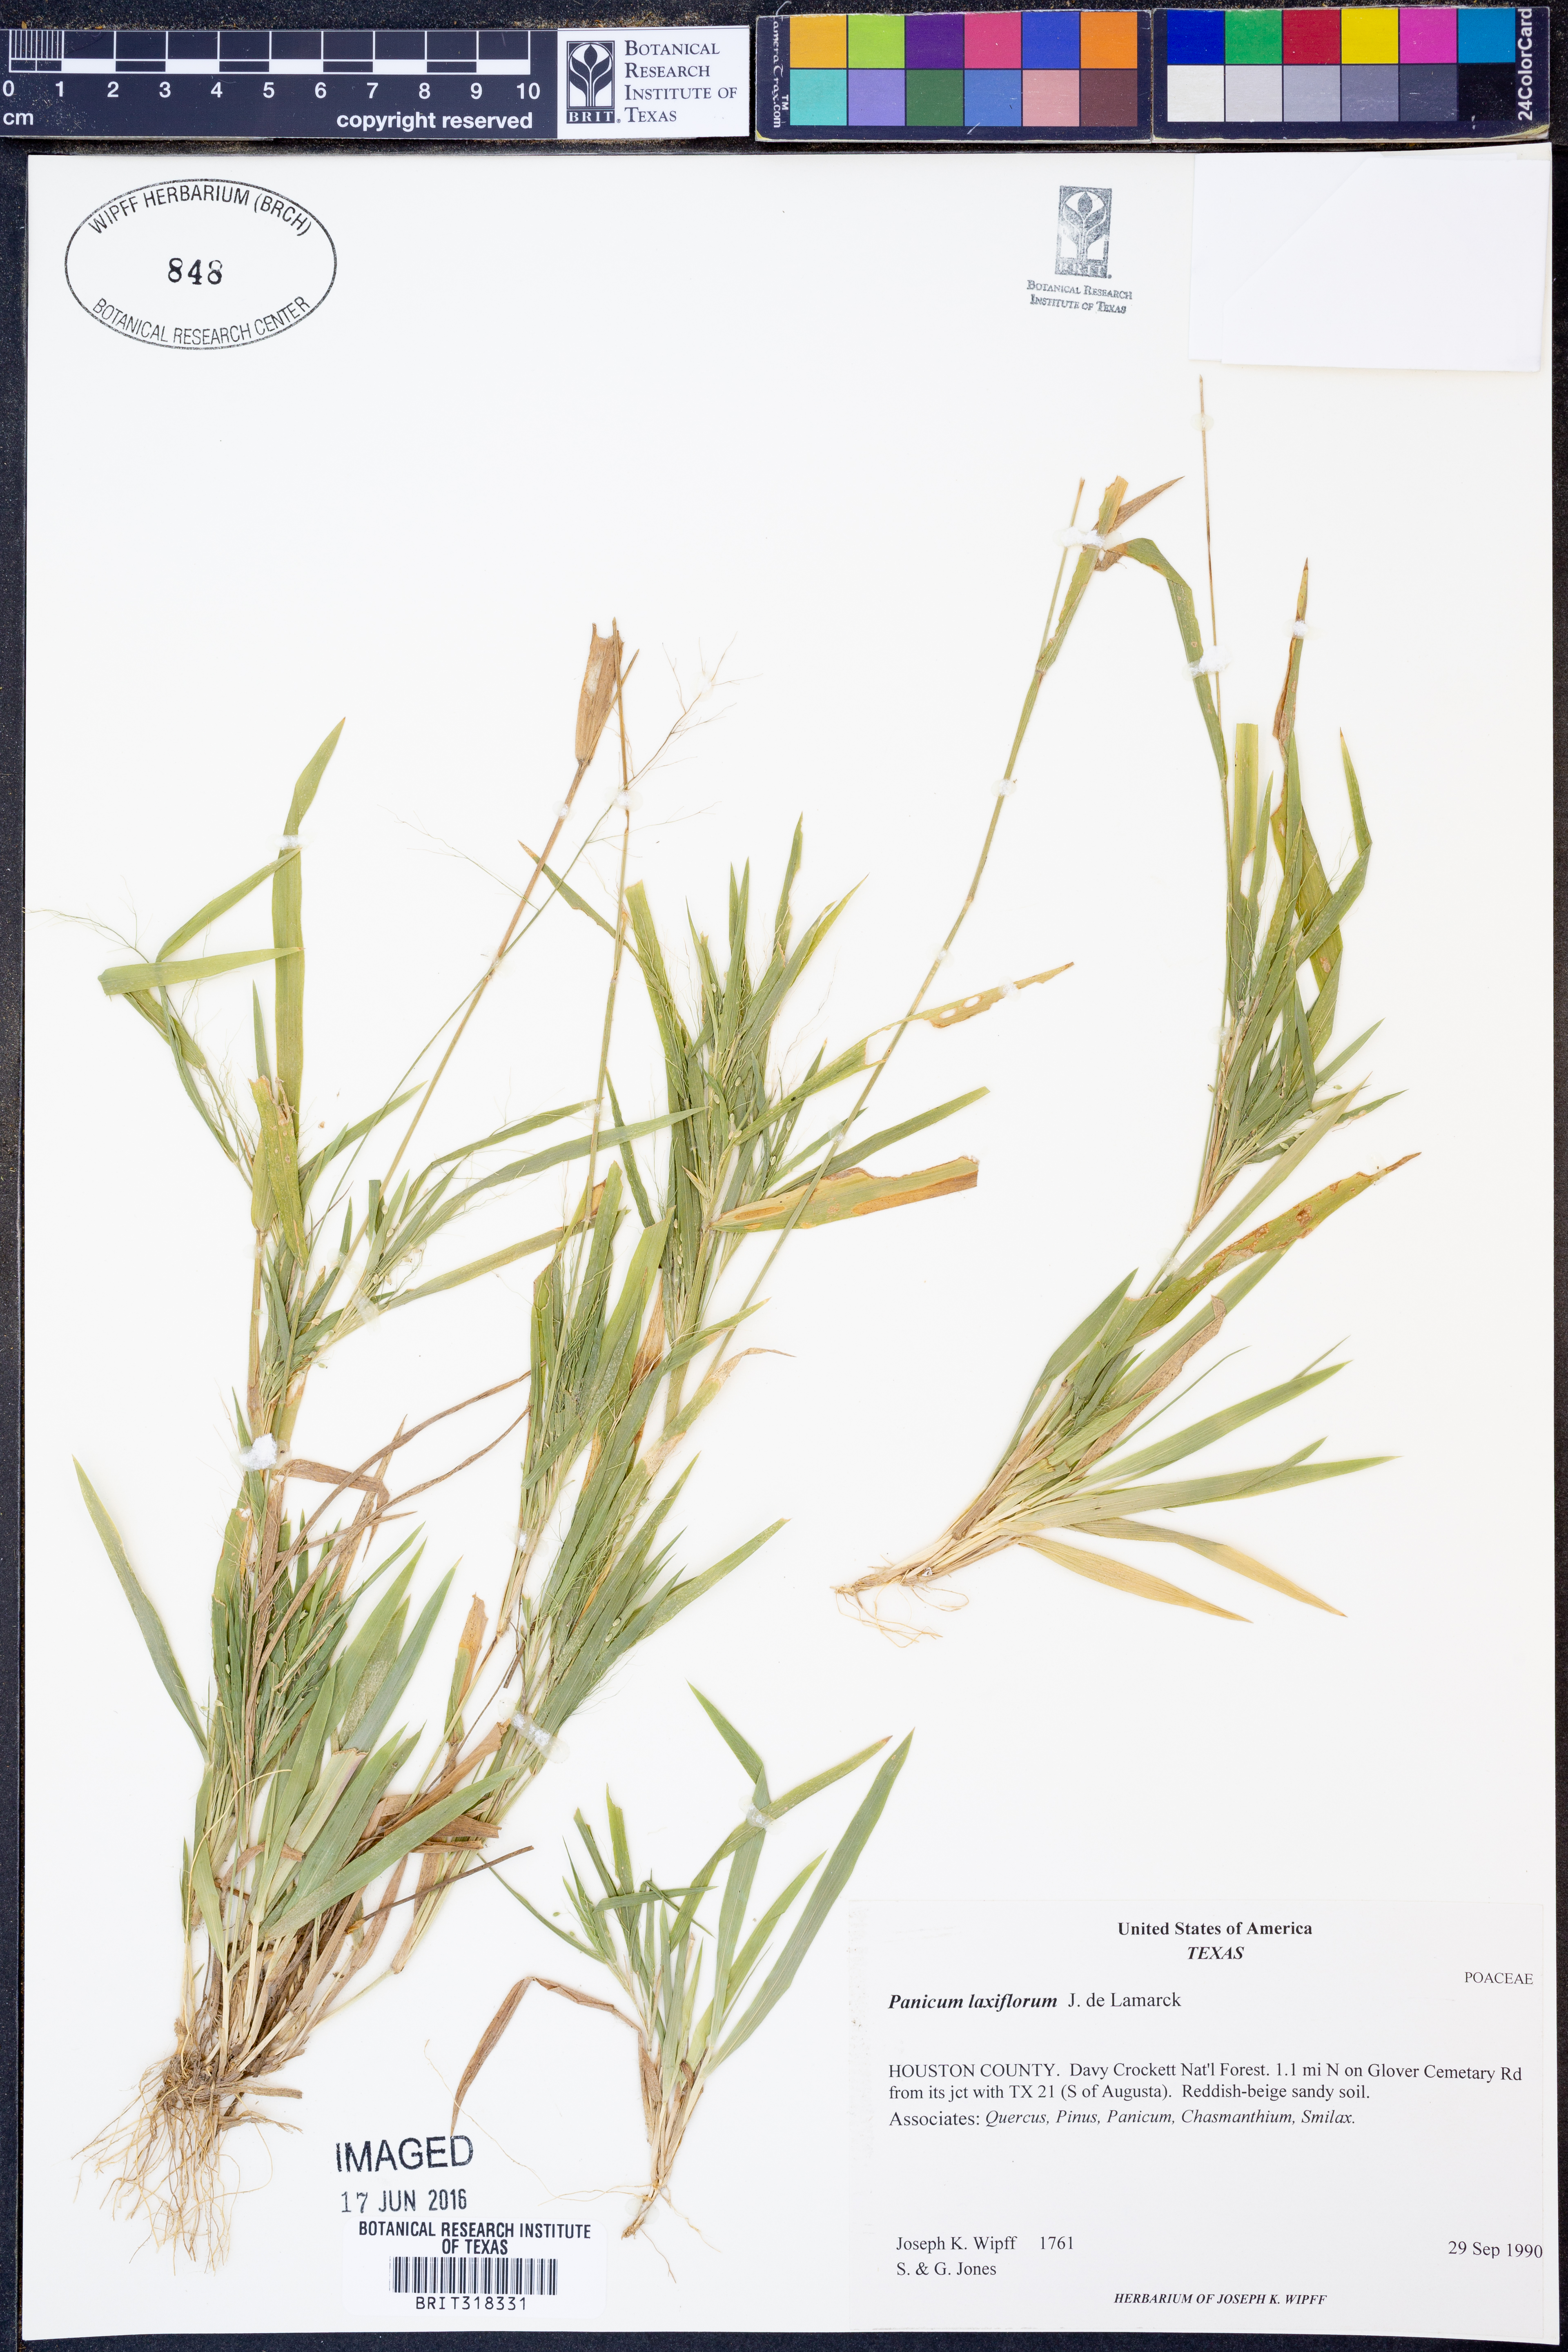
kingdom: Plantae
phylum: Tracheophyta
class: Liliopsida
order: Poales
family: Poaceae
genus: Dichanthelium
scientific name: Dichanthelium laxiflorum
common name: Soft-tuft panic grass
